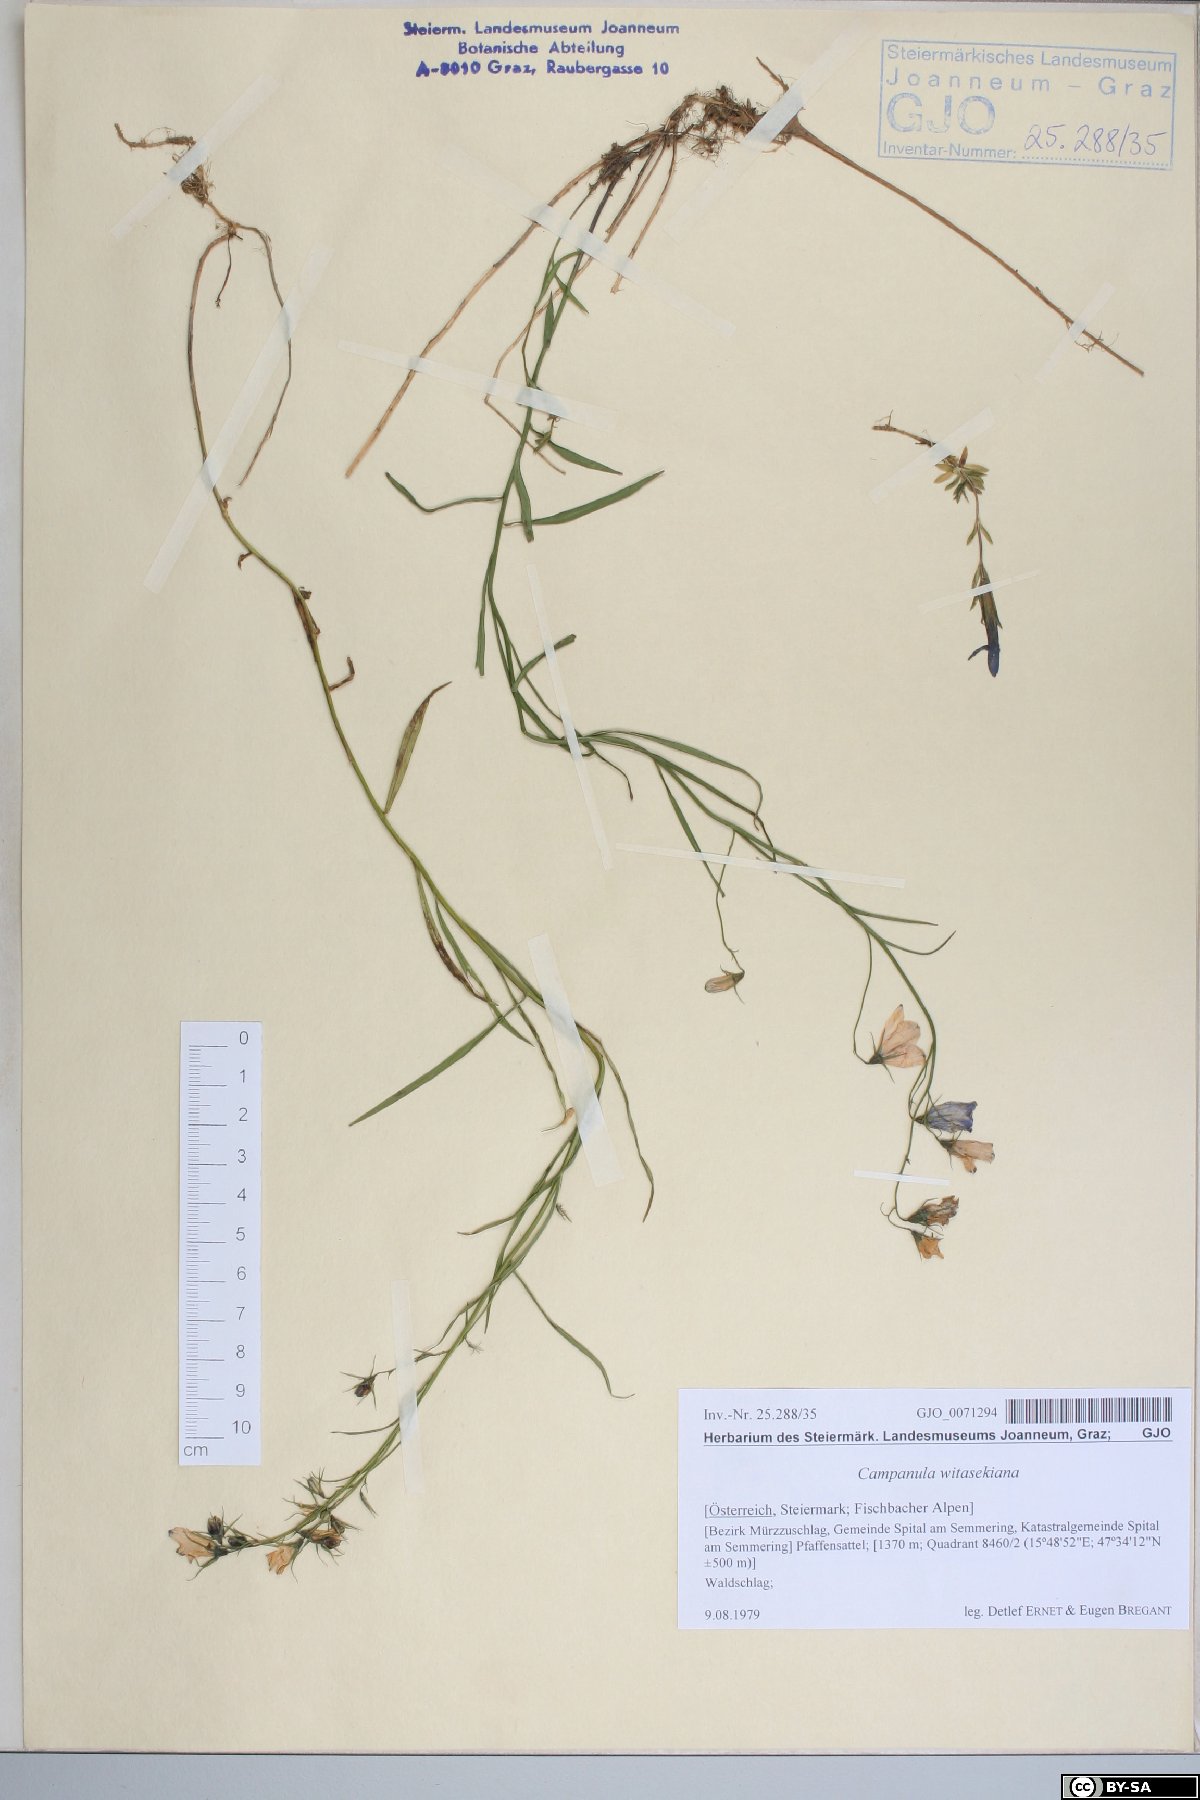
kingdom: Plantae
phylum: Tracheophyta
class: Magnoliopsida
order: Asterales
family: Campanulaceae
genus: Campanula
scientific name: Campanula witasekiana
